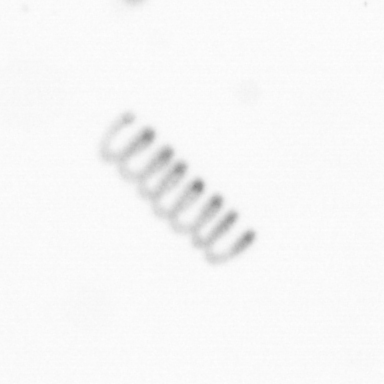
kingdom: Chromista
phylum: Ochrophyta
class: Bacillariophyceae
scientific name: Bacillariophyceae
